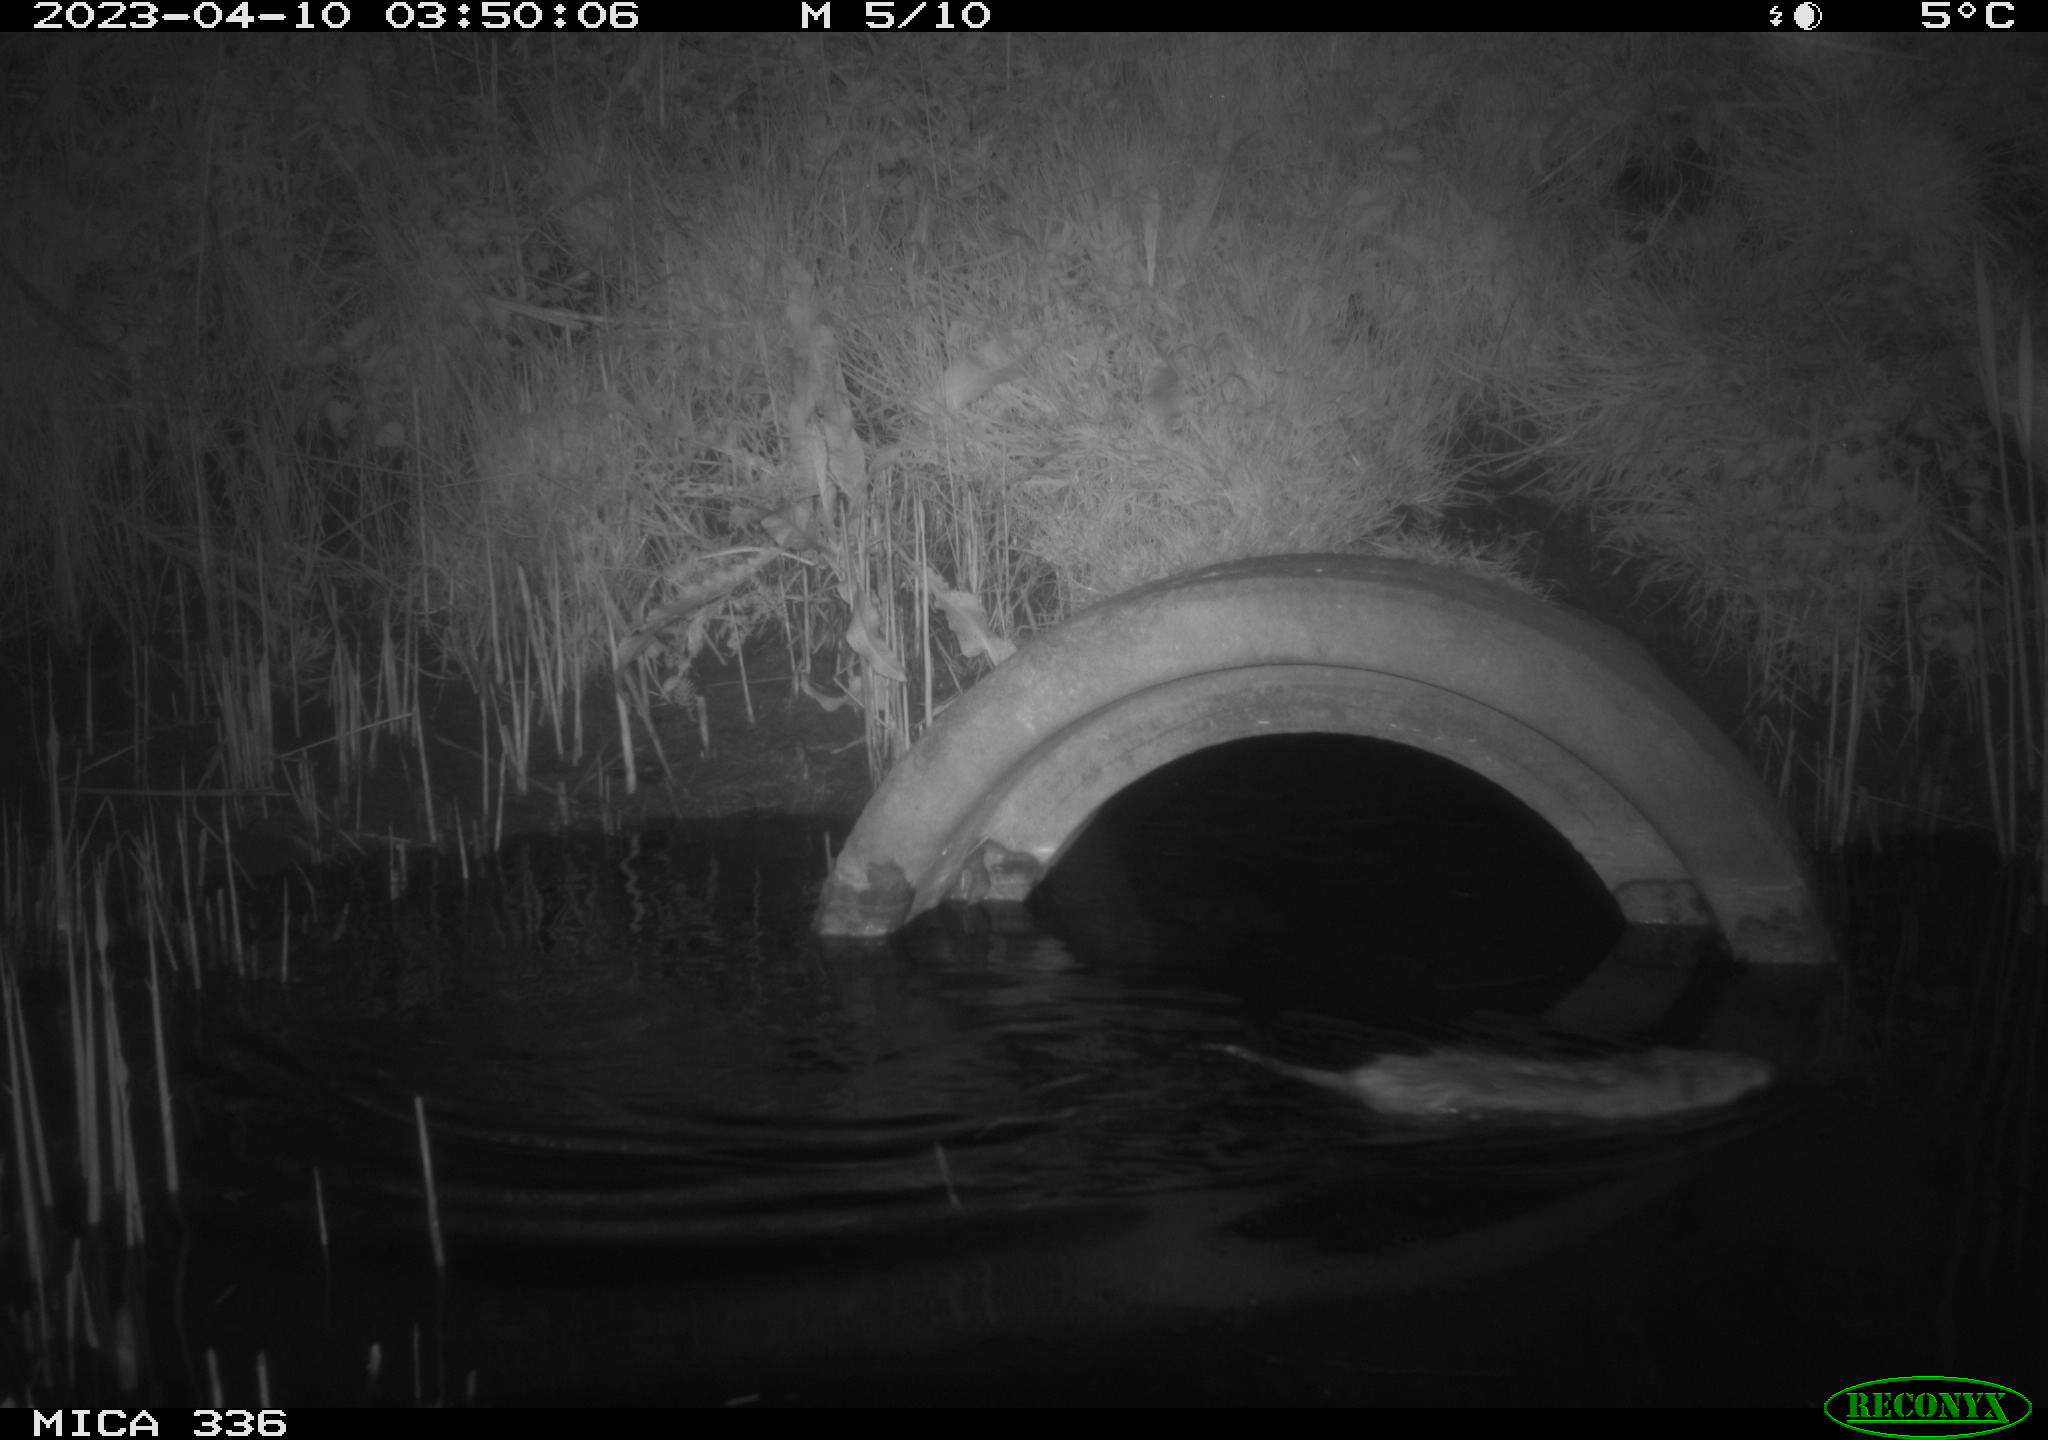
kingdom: Animalia
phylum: Chordata
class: Mammalia
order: Rodentia
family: Cricetidae
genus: Ondatra
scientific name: Ondatra zibethicus
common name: Muskrat
